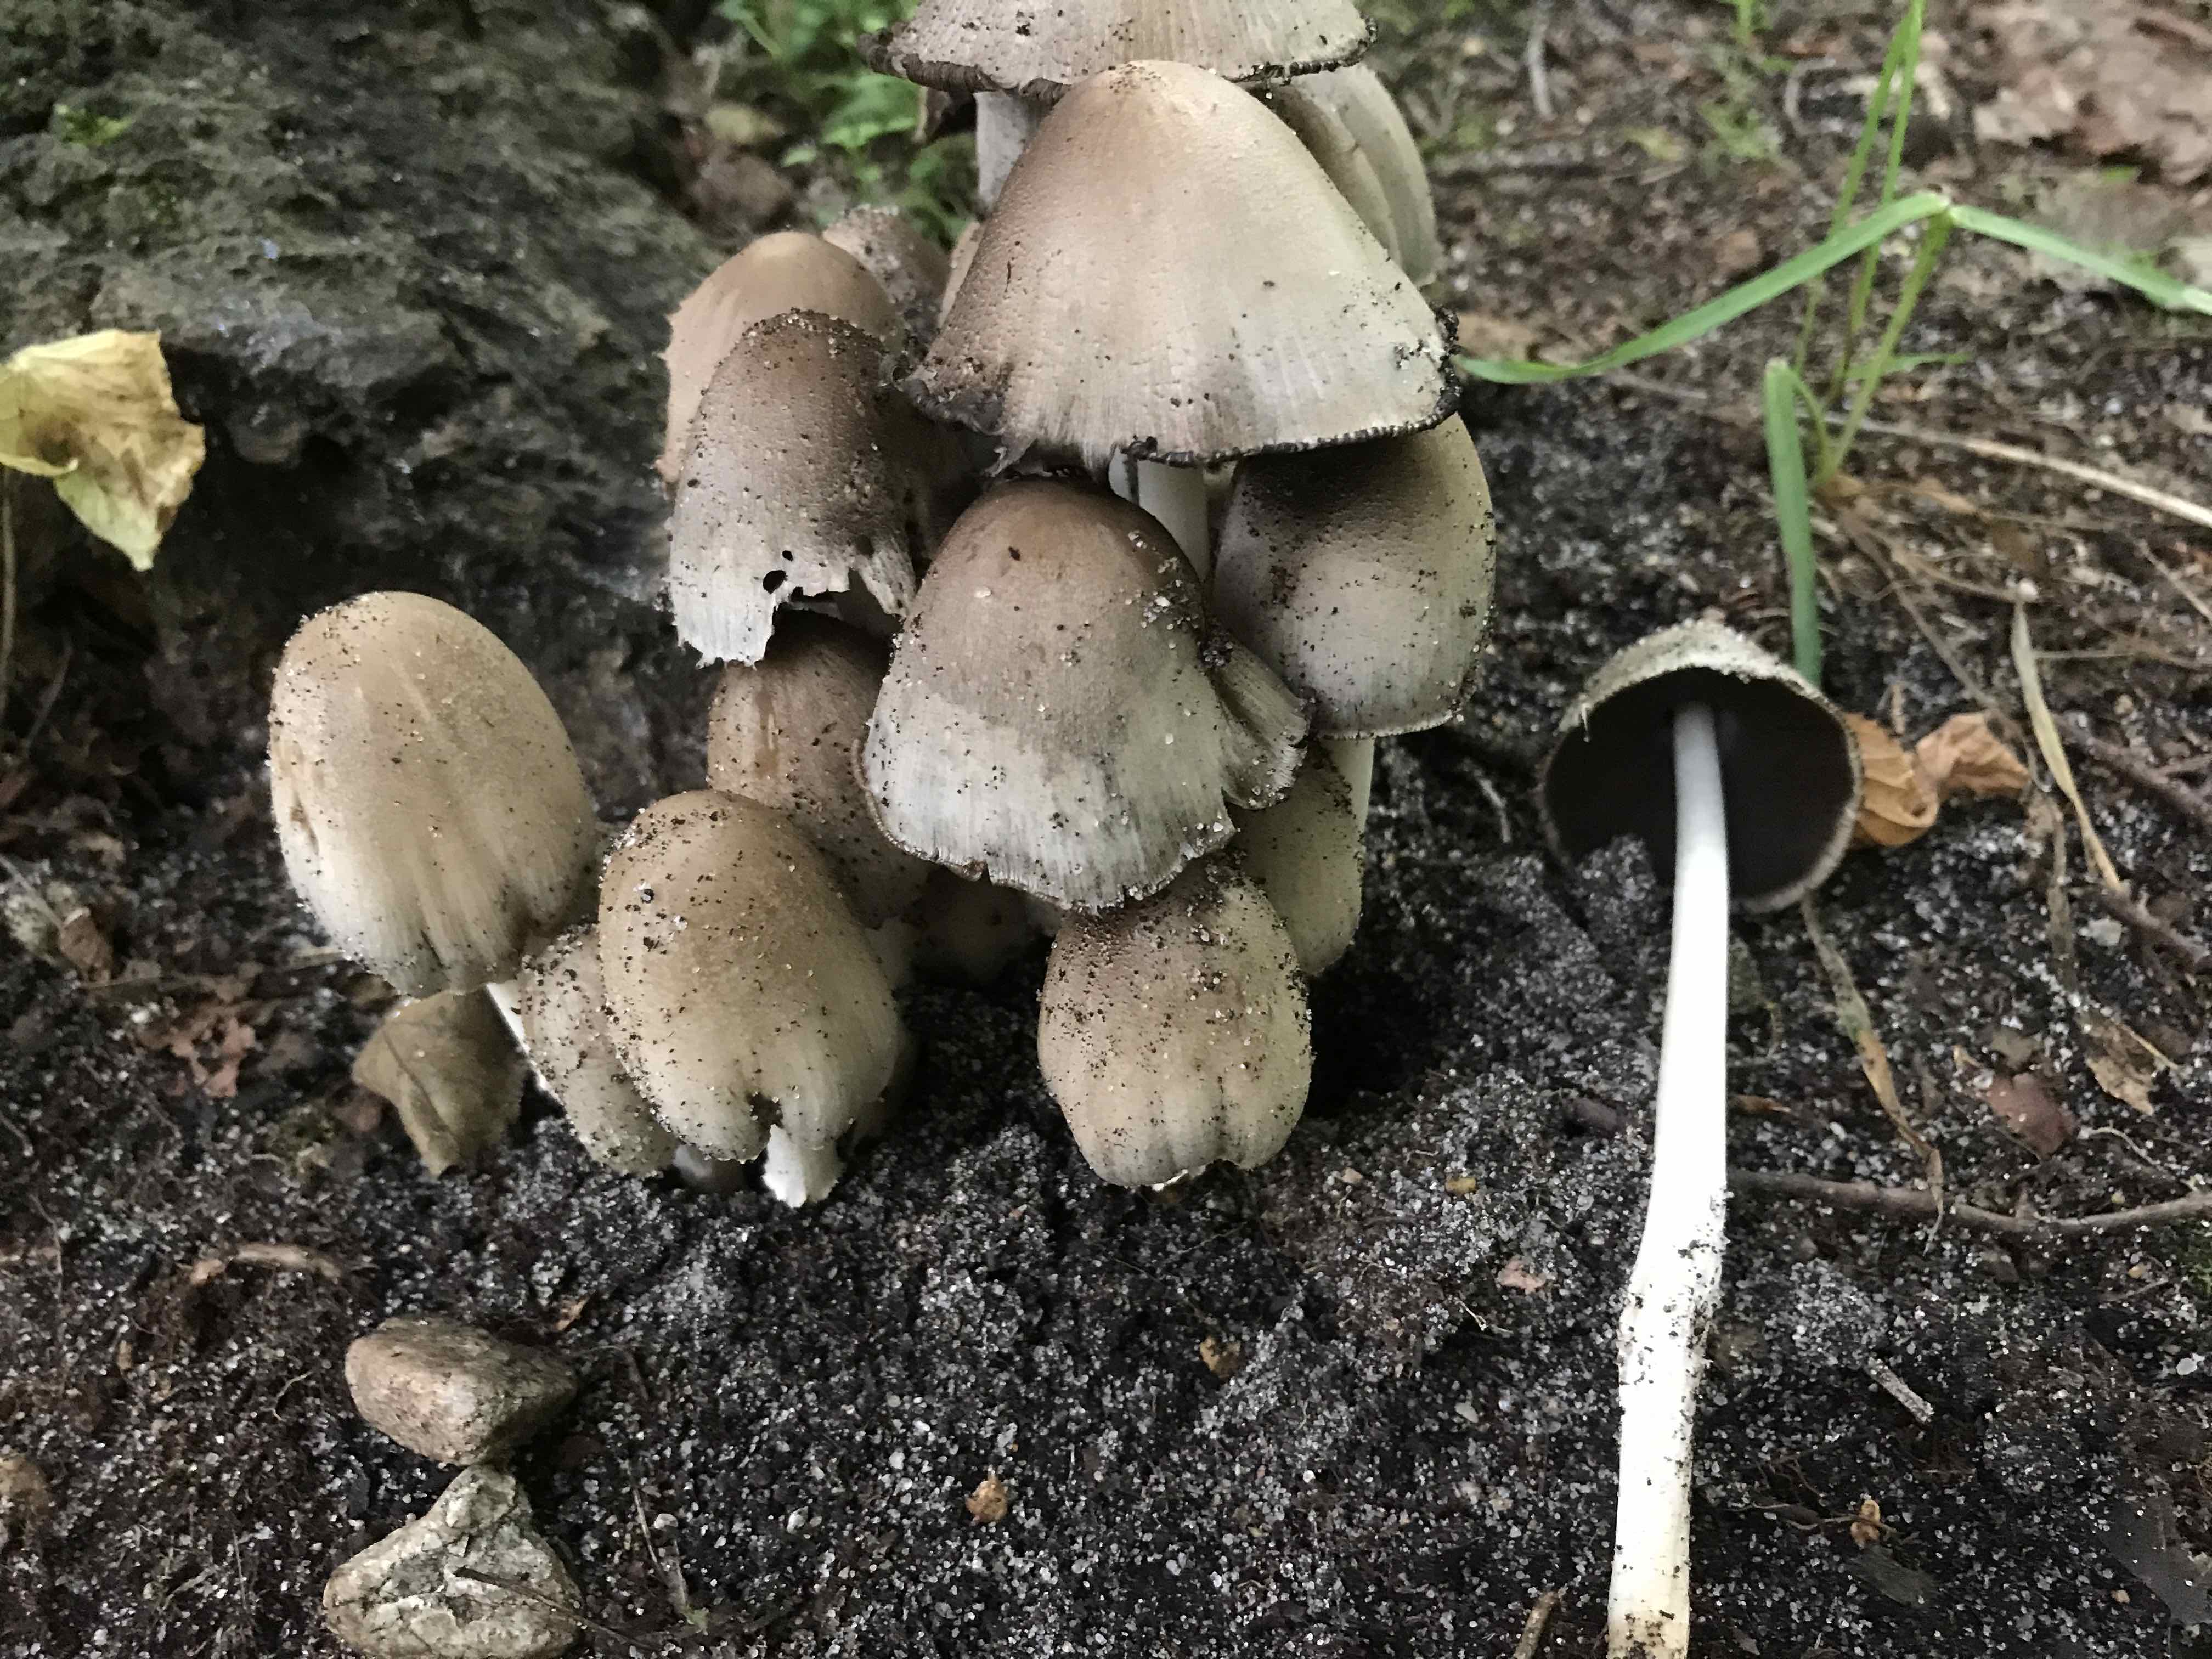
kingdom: Fungi
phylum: Basidiomycota
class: Agaricomycetes
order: Agaricales
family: Psathyrellaceae
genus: Coprinopsis
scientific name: Coprinopsis atramentaria
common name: almindelig blækhat
